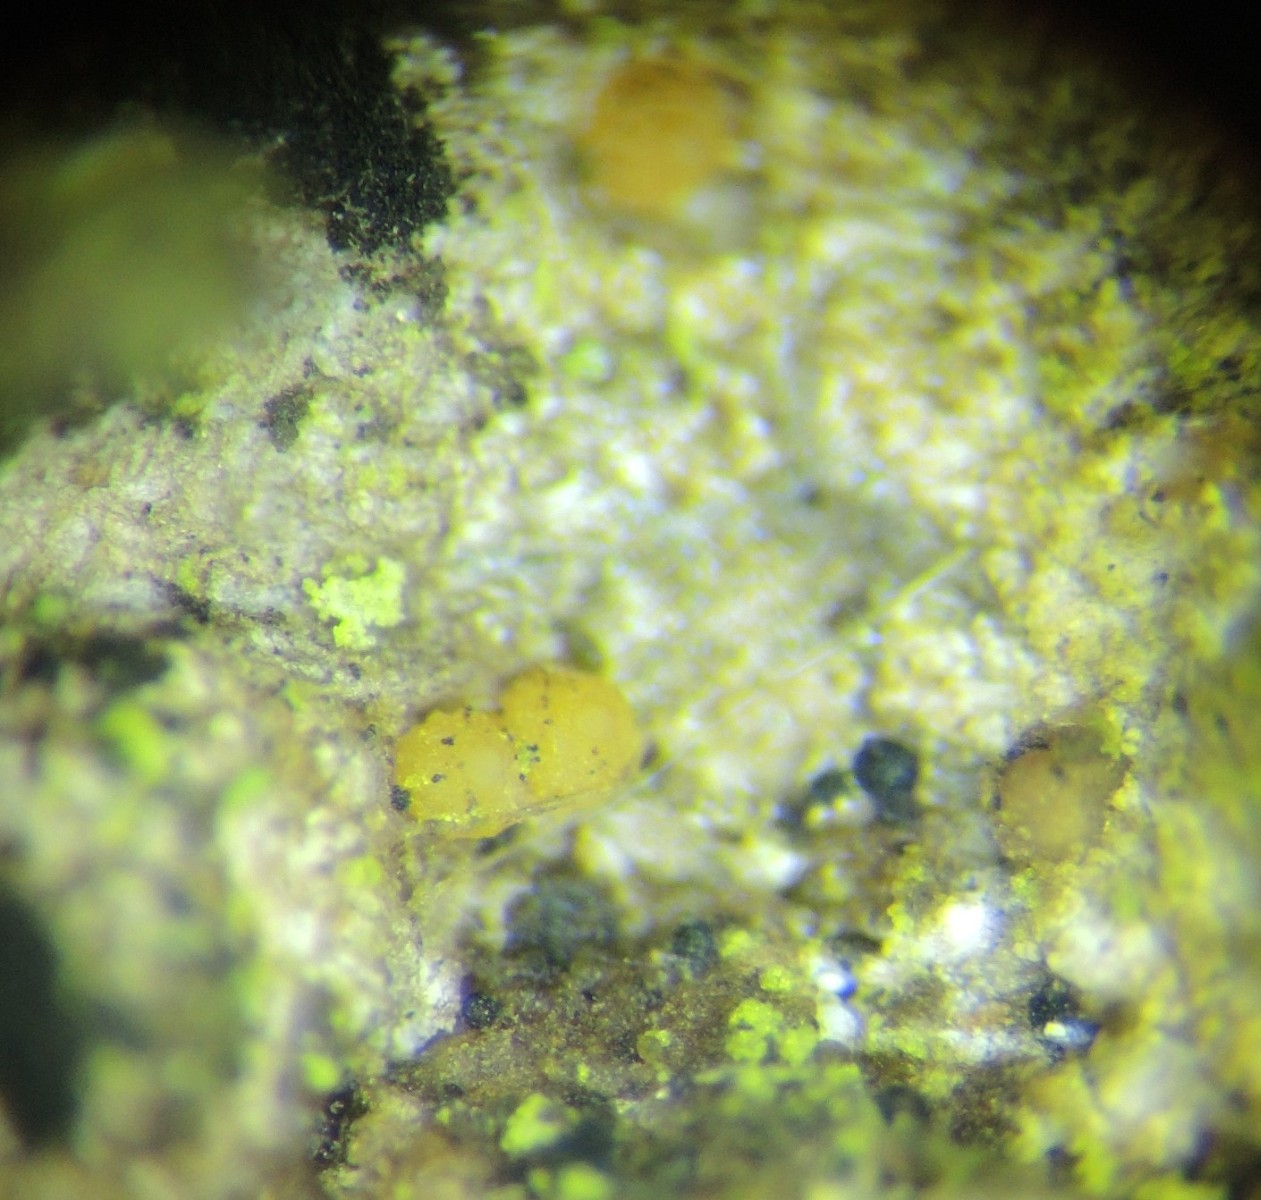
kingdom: Fungi
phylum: Ascomycota
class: Sareomycetes
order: Sareales
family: Sareaceae
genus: Sarea
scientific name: Sarea resinae
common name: orangegul harpiksskive
